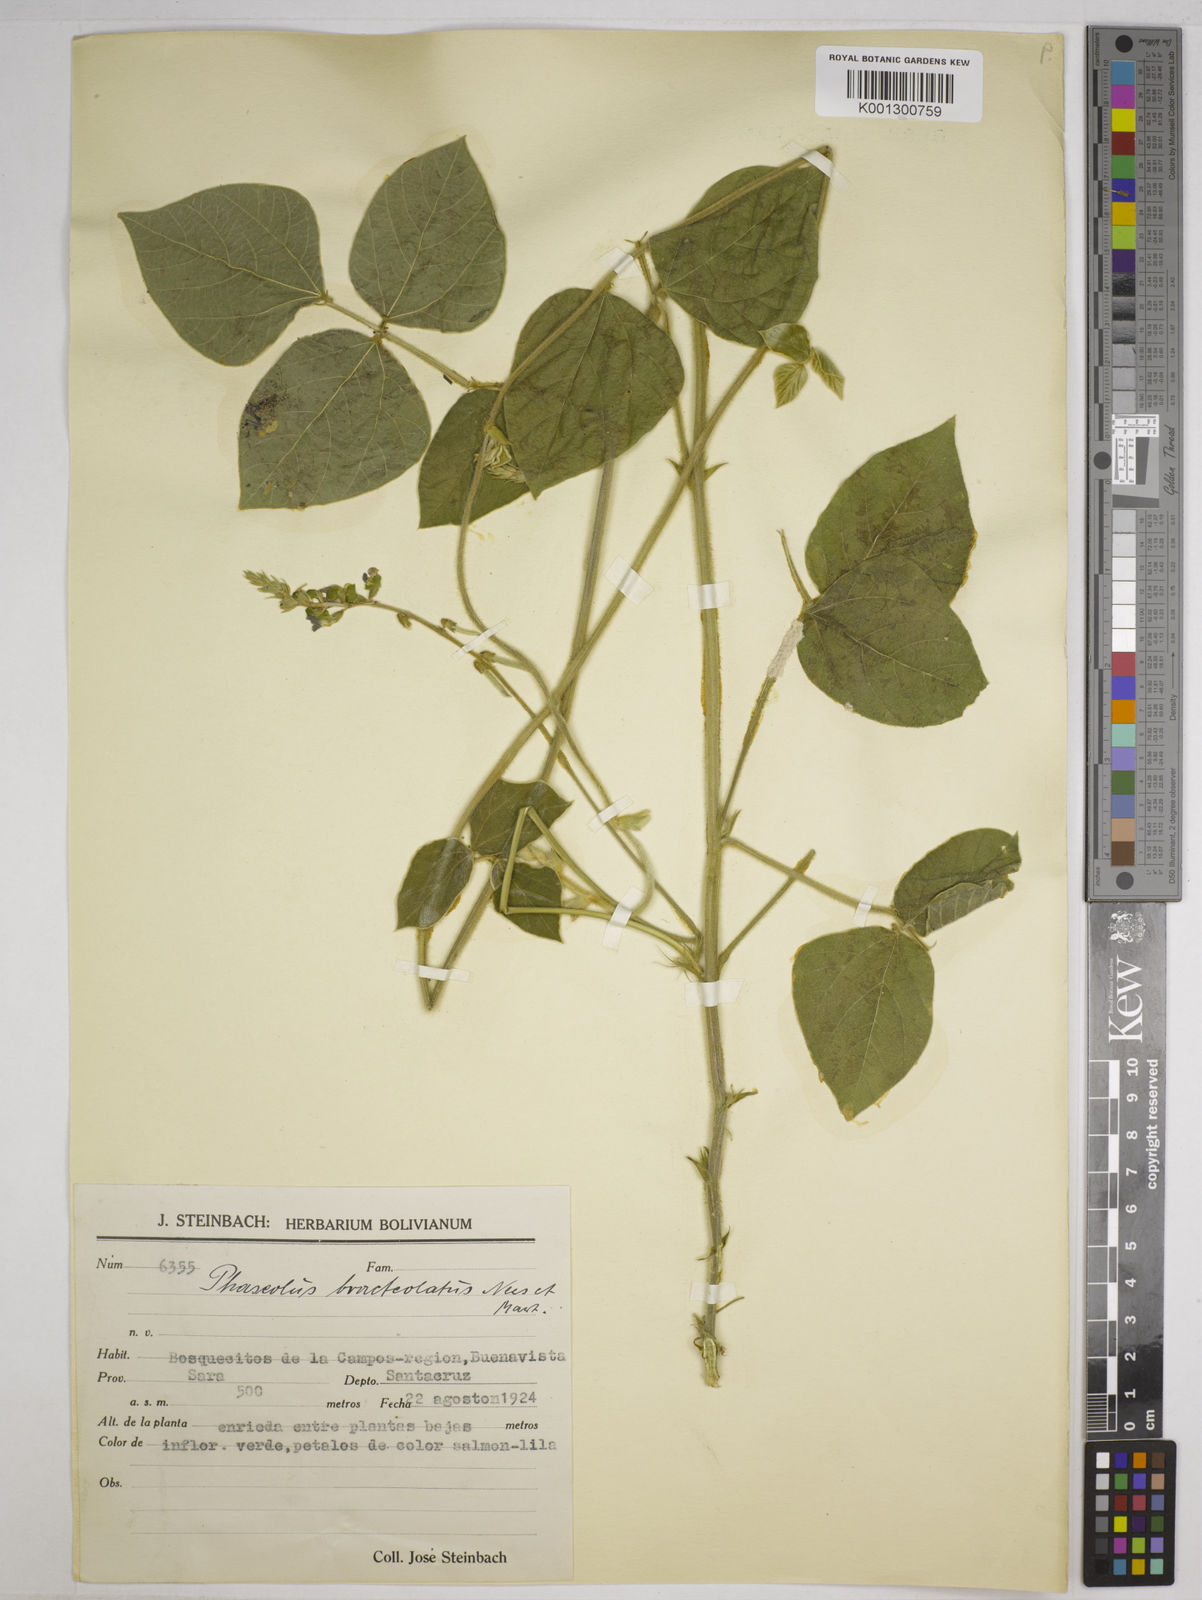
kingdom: Plantae
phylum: Tracheophyta
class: Magnoliopsida
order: Fabales
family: Fabaceae
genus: Macroptilium
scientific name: Macroptilium bracteatum
